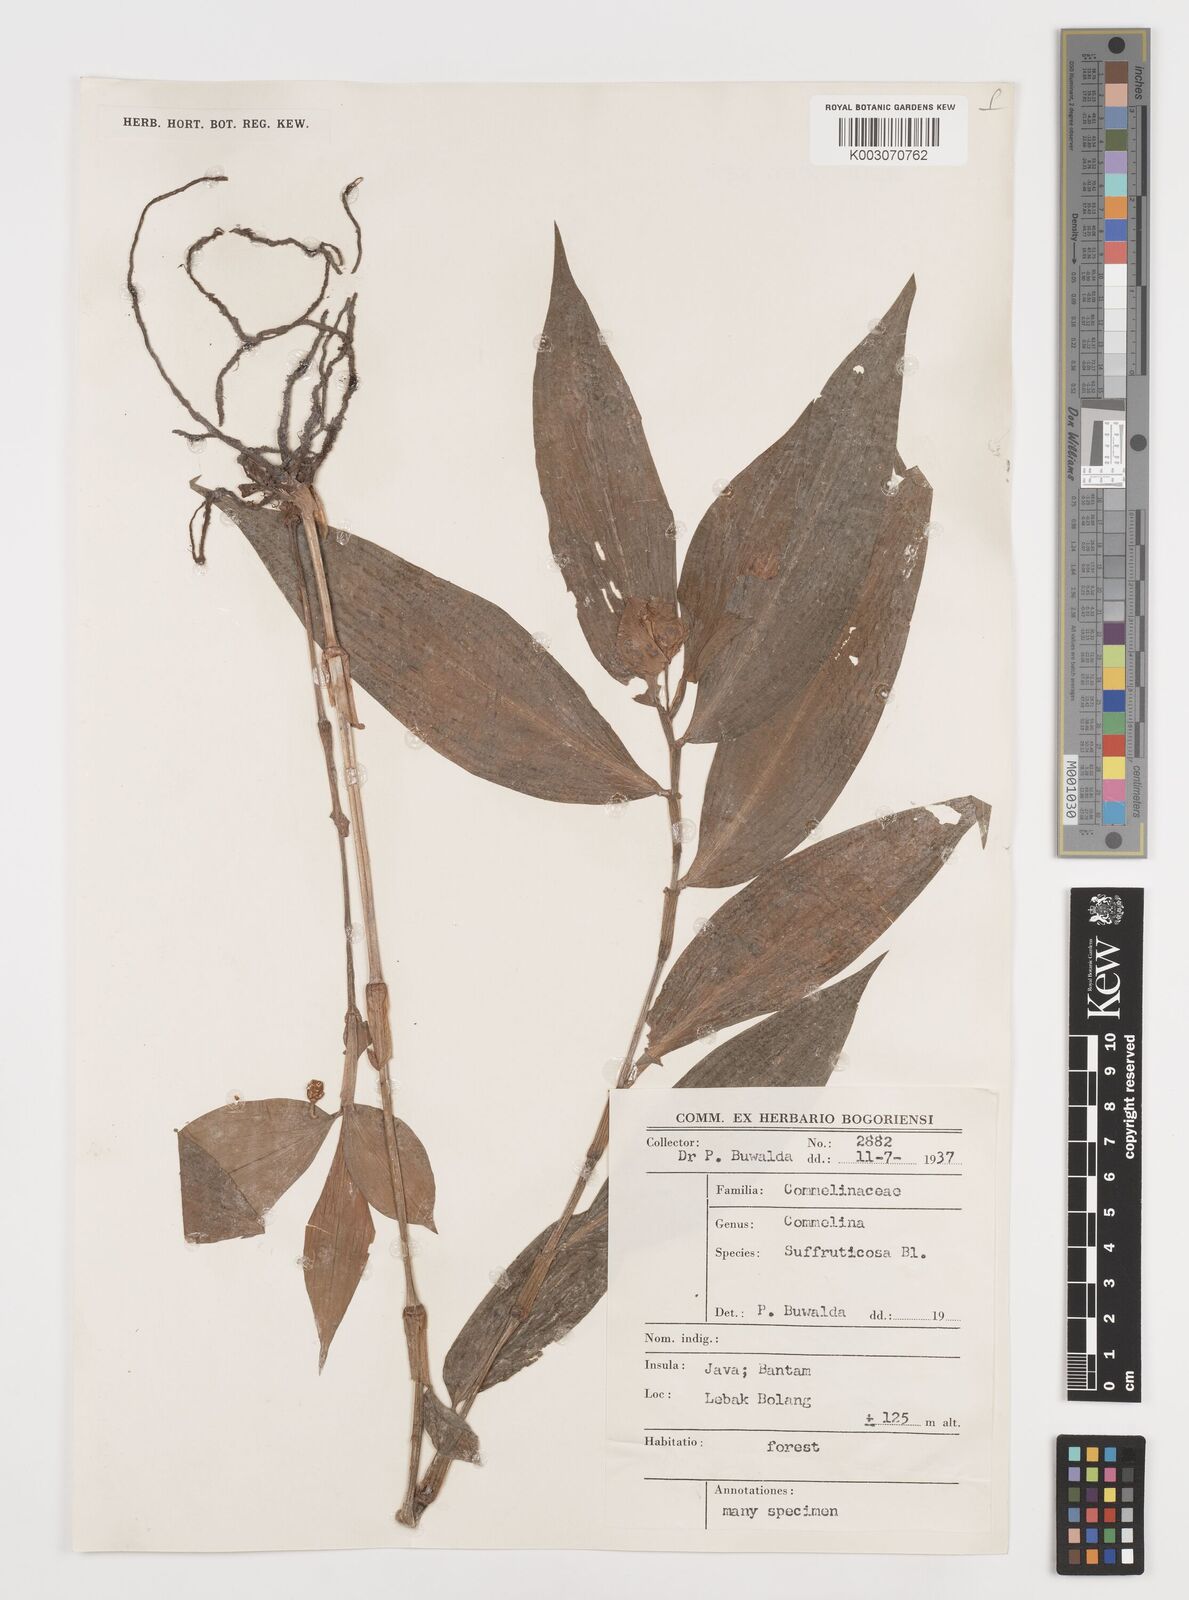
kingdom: Plantae
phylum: Tracheophyta
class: Liliopsida
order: Commelinales
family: Commelinaceae
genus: Commelina
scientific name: Commelina suffruticosa
